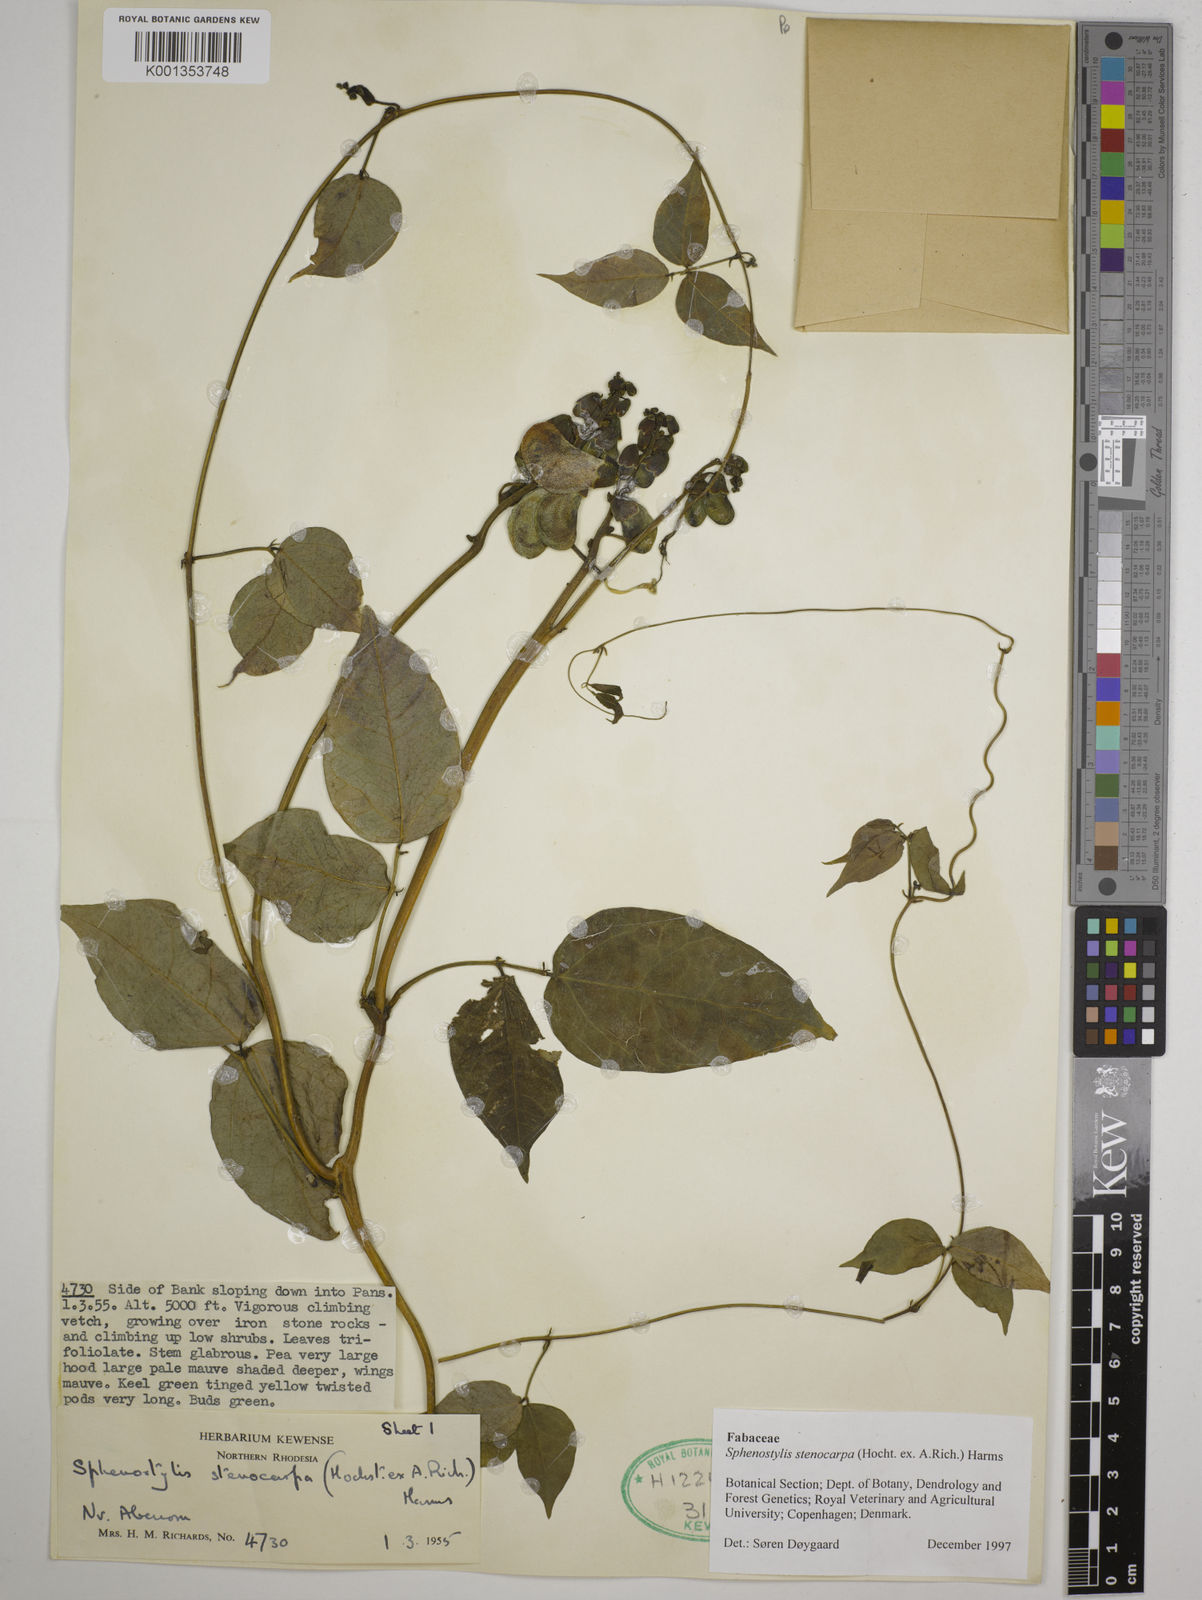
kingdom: Plantae
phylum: Tracheophyta
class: Magnoliopsida
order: Fabales
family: Fabaceae
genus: Sphenostylis
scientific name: Sphenostylis stenocarpa
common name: Yam-pea
